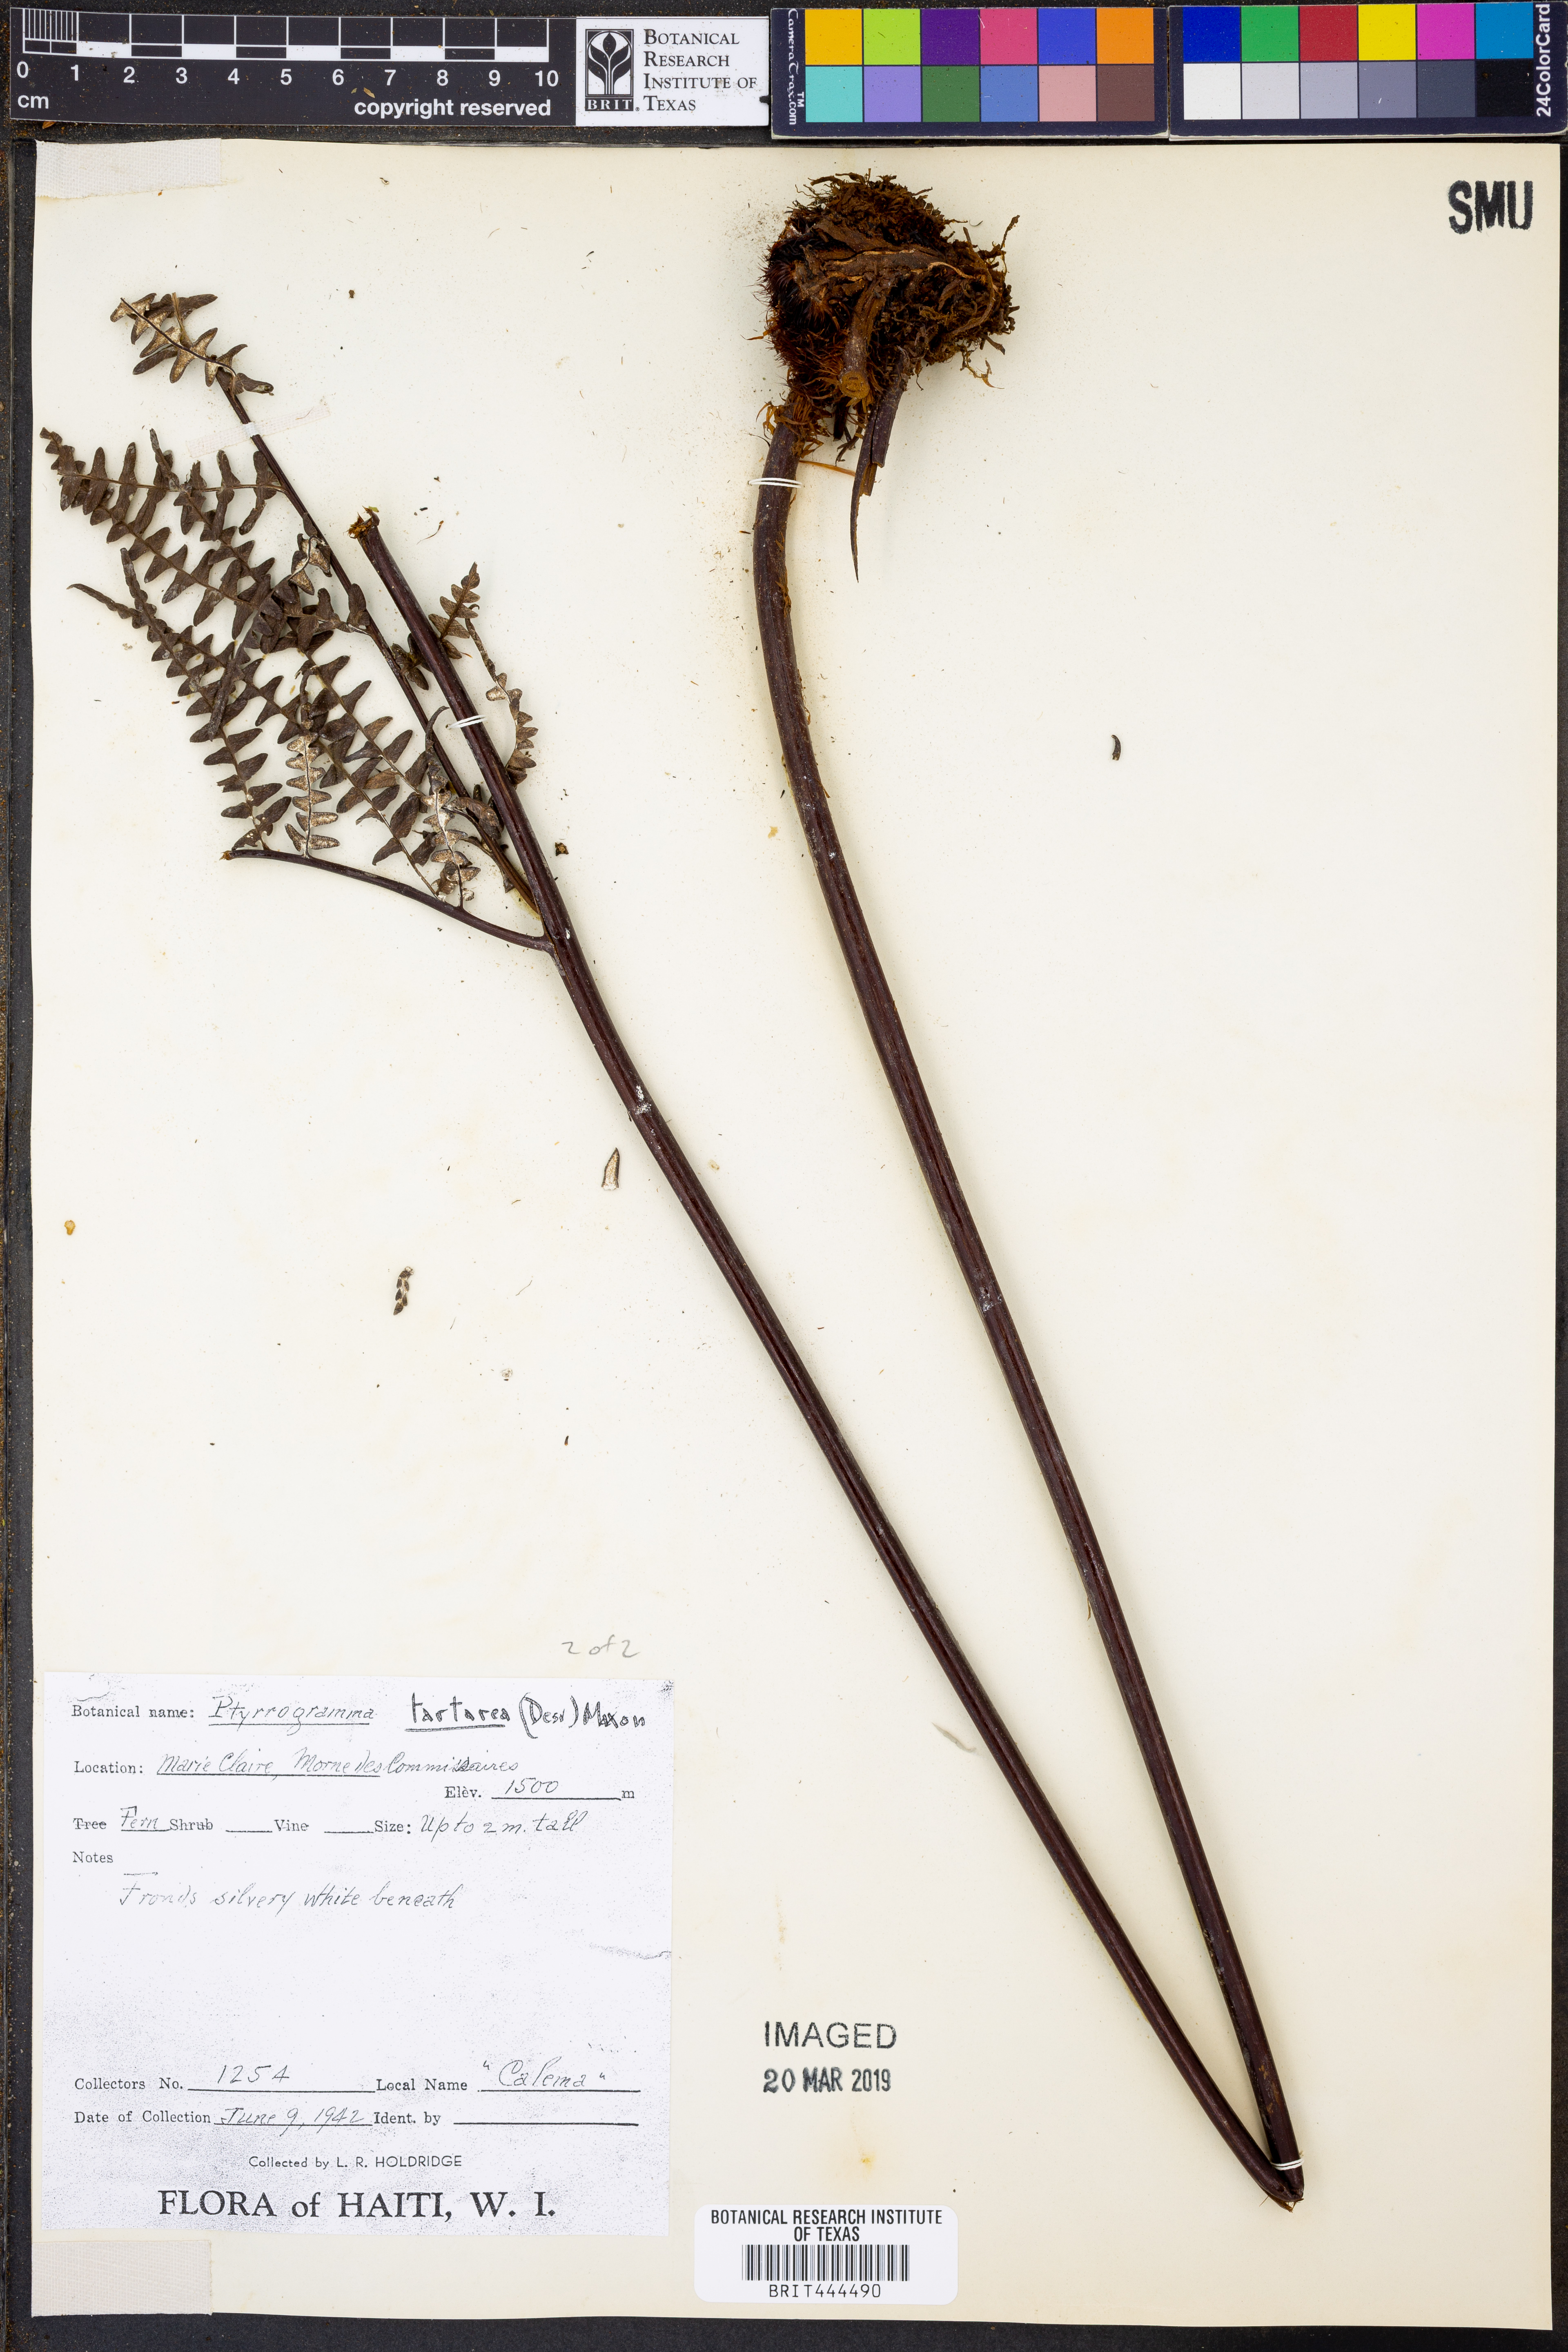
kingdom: Plantae
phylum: Tracheophyta
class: Polypodiopsida
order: Polypodiales
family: Pteridaceae
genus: Pityrogramma
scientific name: Pityrogramma ebenea
